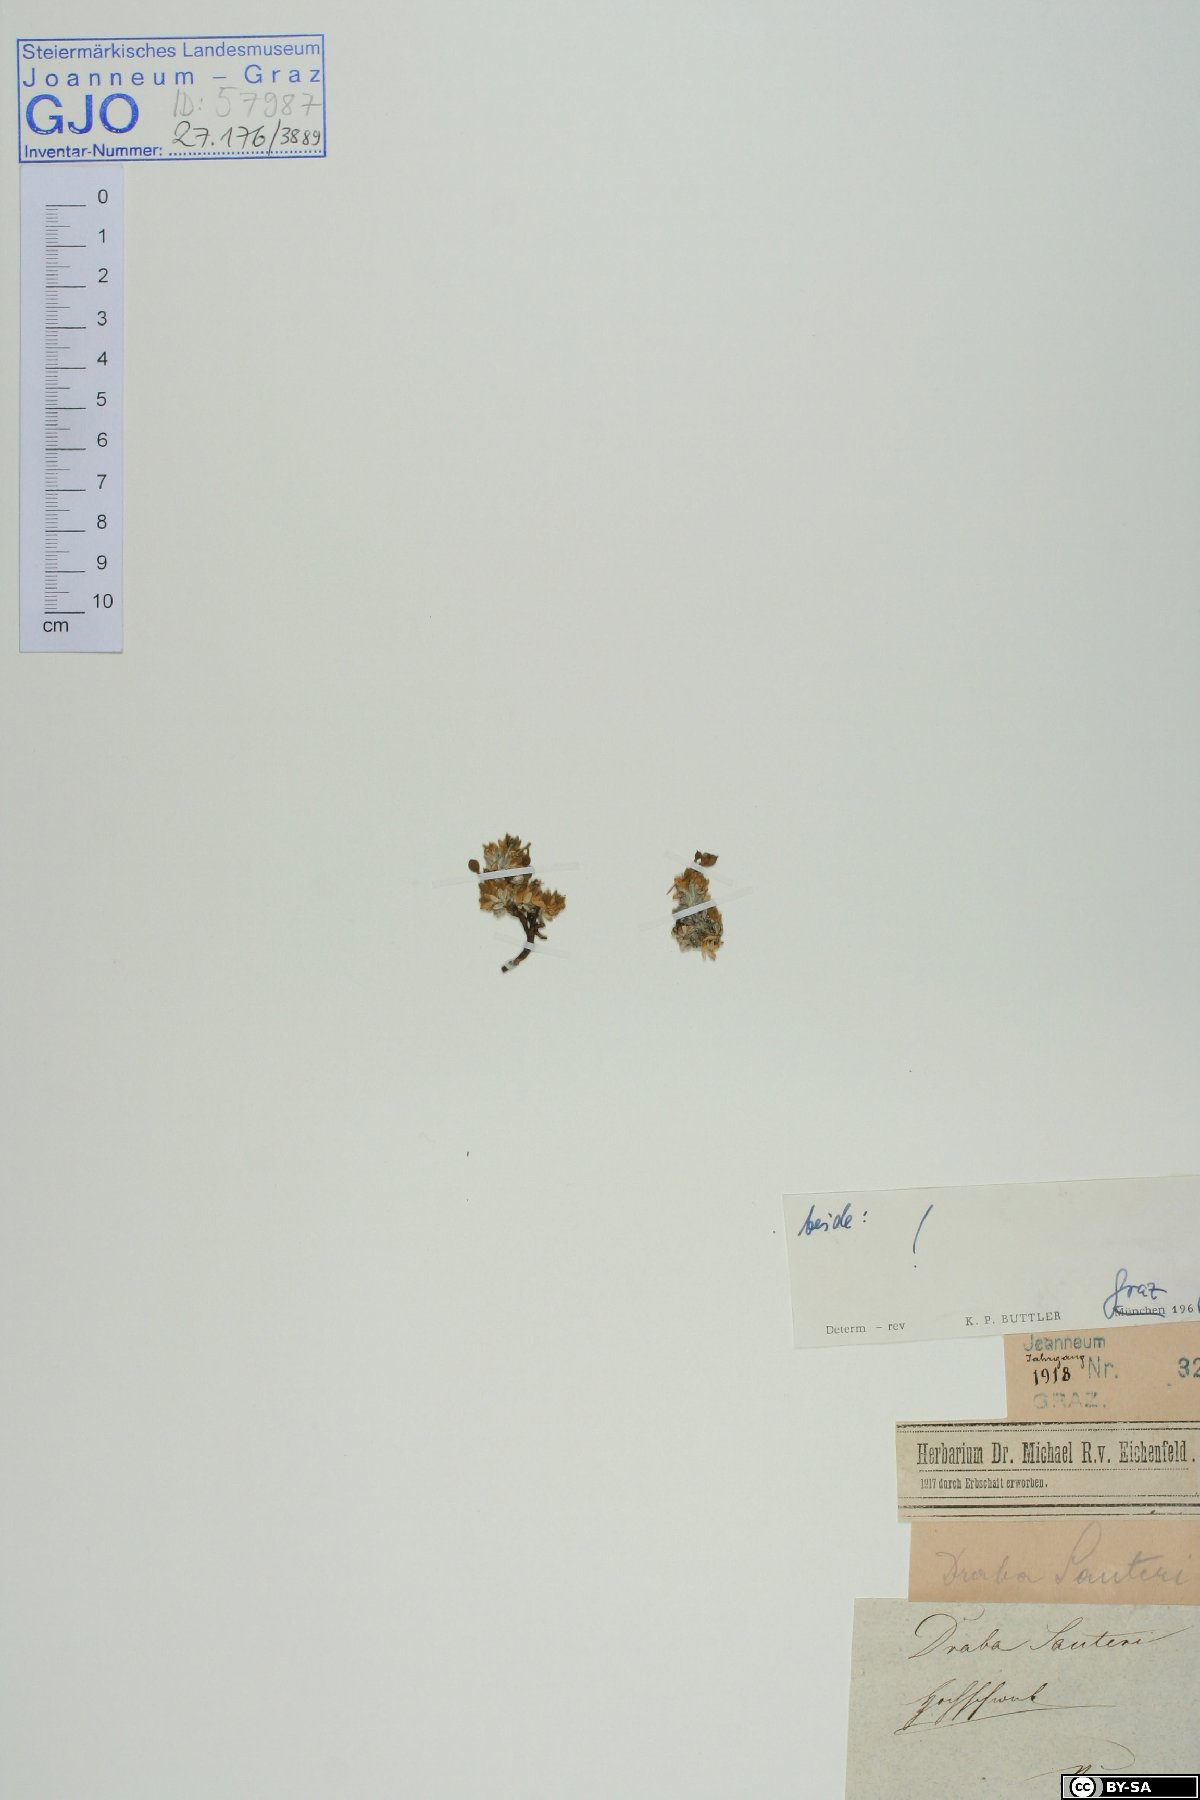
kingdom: Plantae
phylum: Tracheophyta
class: Magnoliopsida
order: Brassicales
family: Brassicaceae
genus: Draba
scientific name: Draba sauteri
